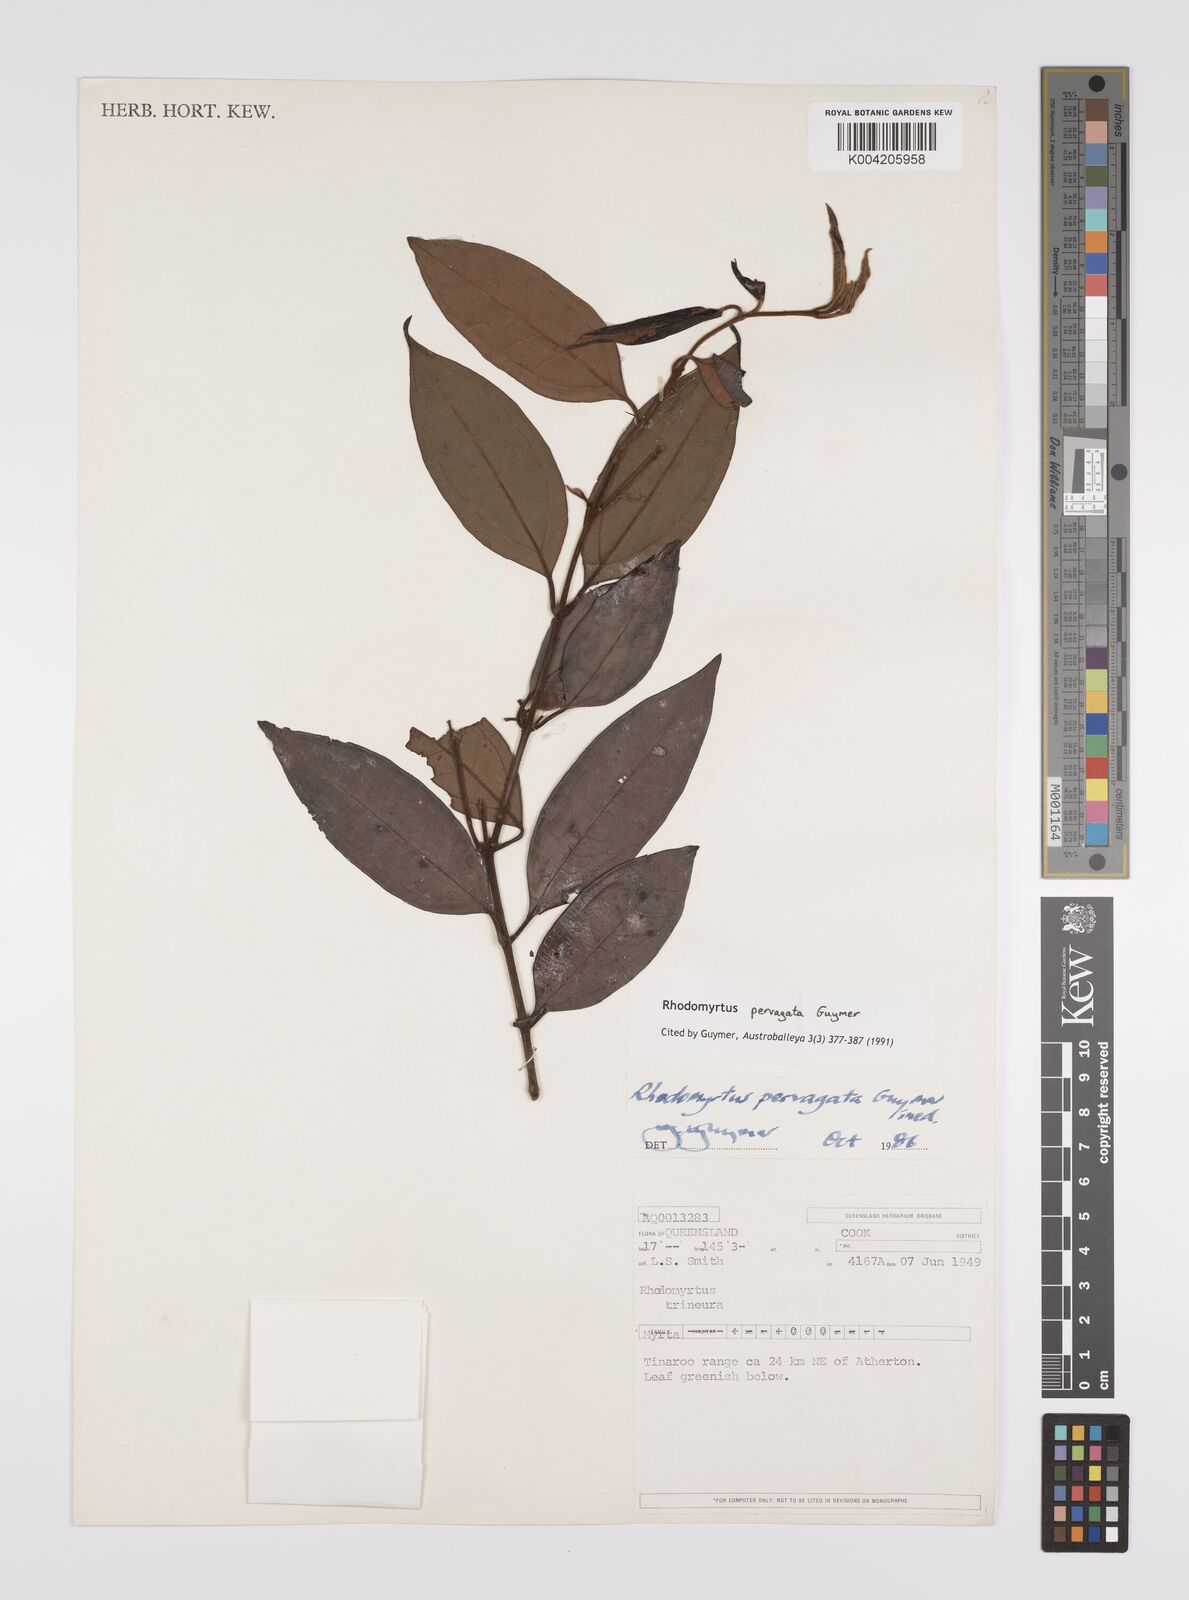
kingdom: Plantae
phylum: Tracheophyta
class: Magnoliopsida
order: Myrtales
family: Myrtaceae
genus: Rhodomyrtus
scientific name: Rhodomyrtus pervagata
